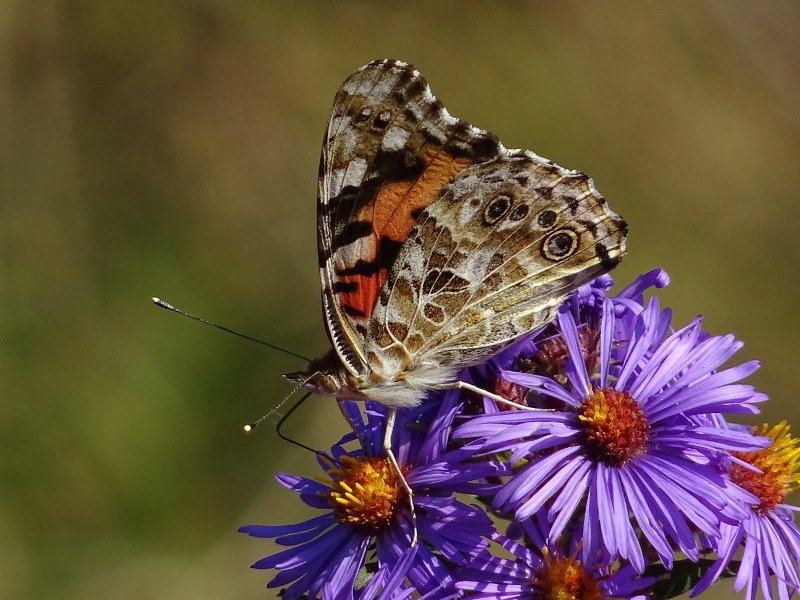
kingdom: Animalia
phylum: Arthropoda
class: Insecta
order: Lepidoptera
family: Nymphalidae
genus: Vanessa
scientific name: Vanessa cardui
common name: Painted Lady
